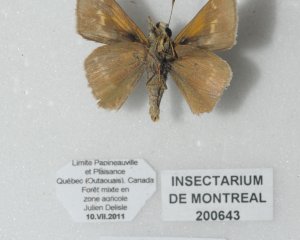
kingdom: Animalia
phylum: Arthropoda
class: Insecta
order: Lepidoptera
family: Hesperiidae
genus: Polites
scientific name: Polites
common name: Crossline Skipper
